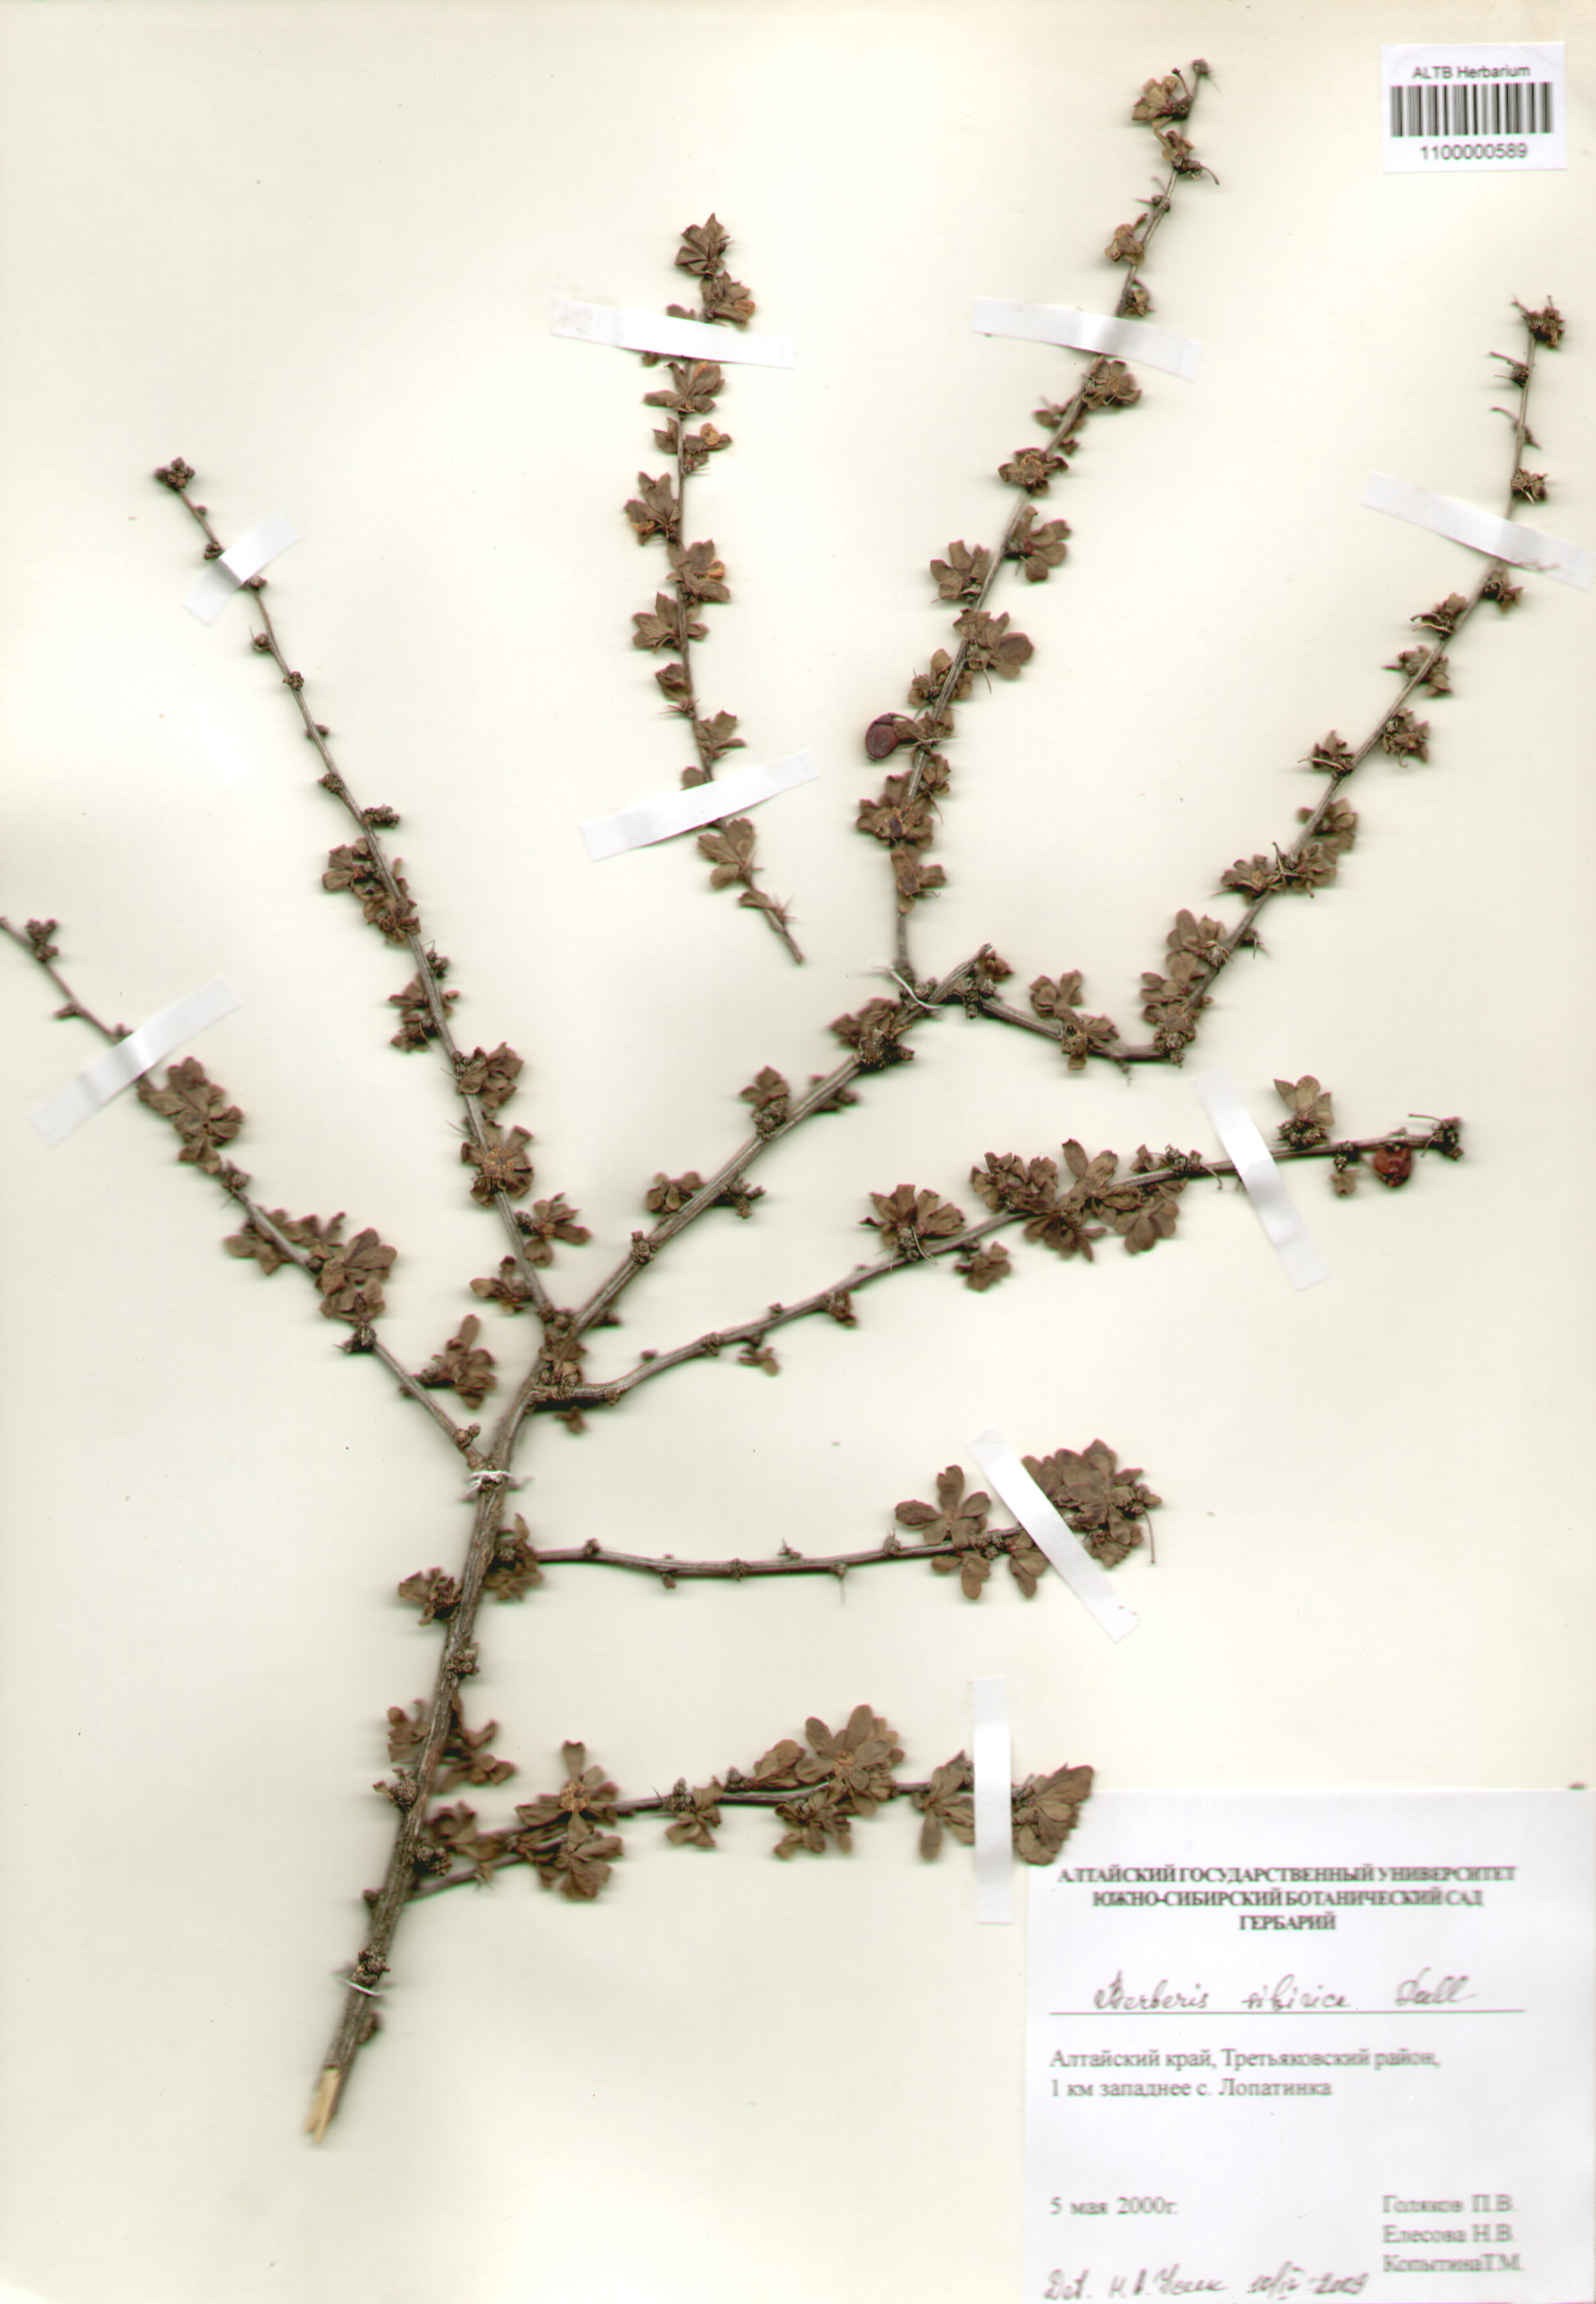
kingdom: Plantae
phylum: Tracheophyta
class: Magnoliopsida
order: Ranunculales
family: Berberidaceae
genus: Berberis
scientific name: Berberis sibirica
